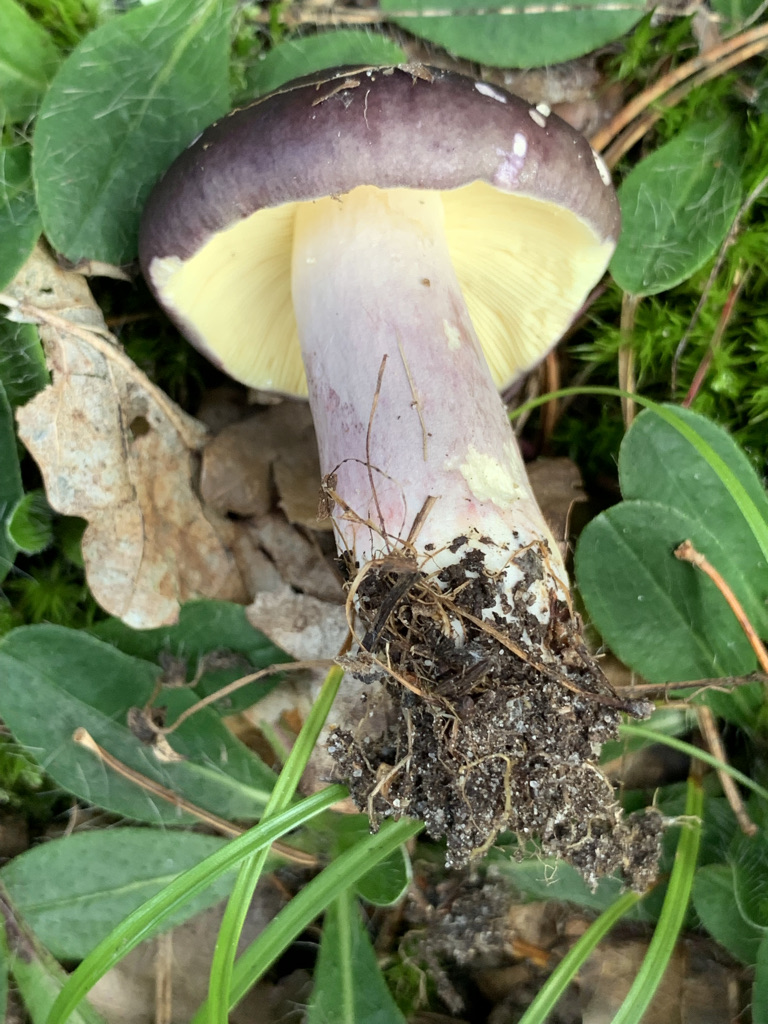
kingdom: Fungi
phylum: Basidiomycota
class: Agaricomycetes
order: Russulales
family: Russulaceae
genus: Russula
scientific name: Russula sardonia
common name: citronbladet skørhat
